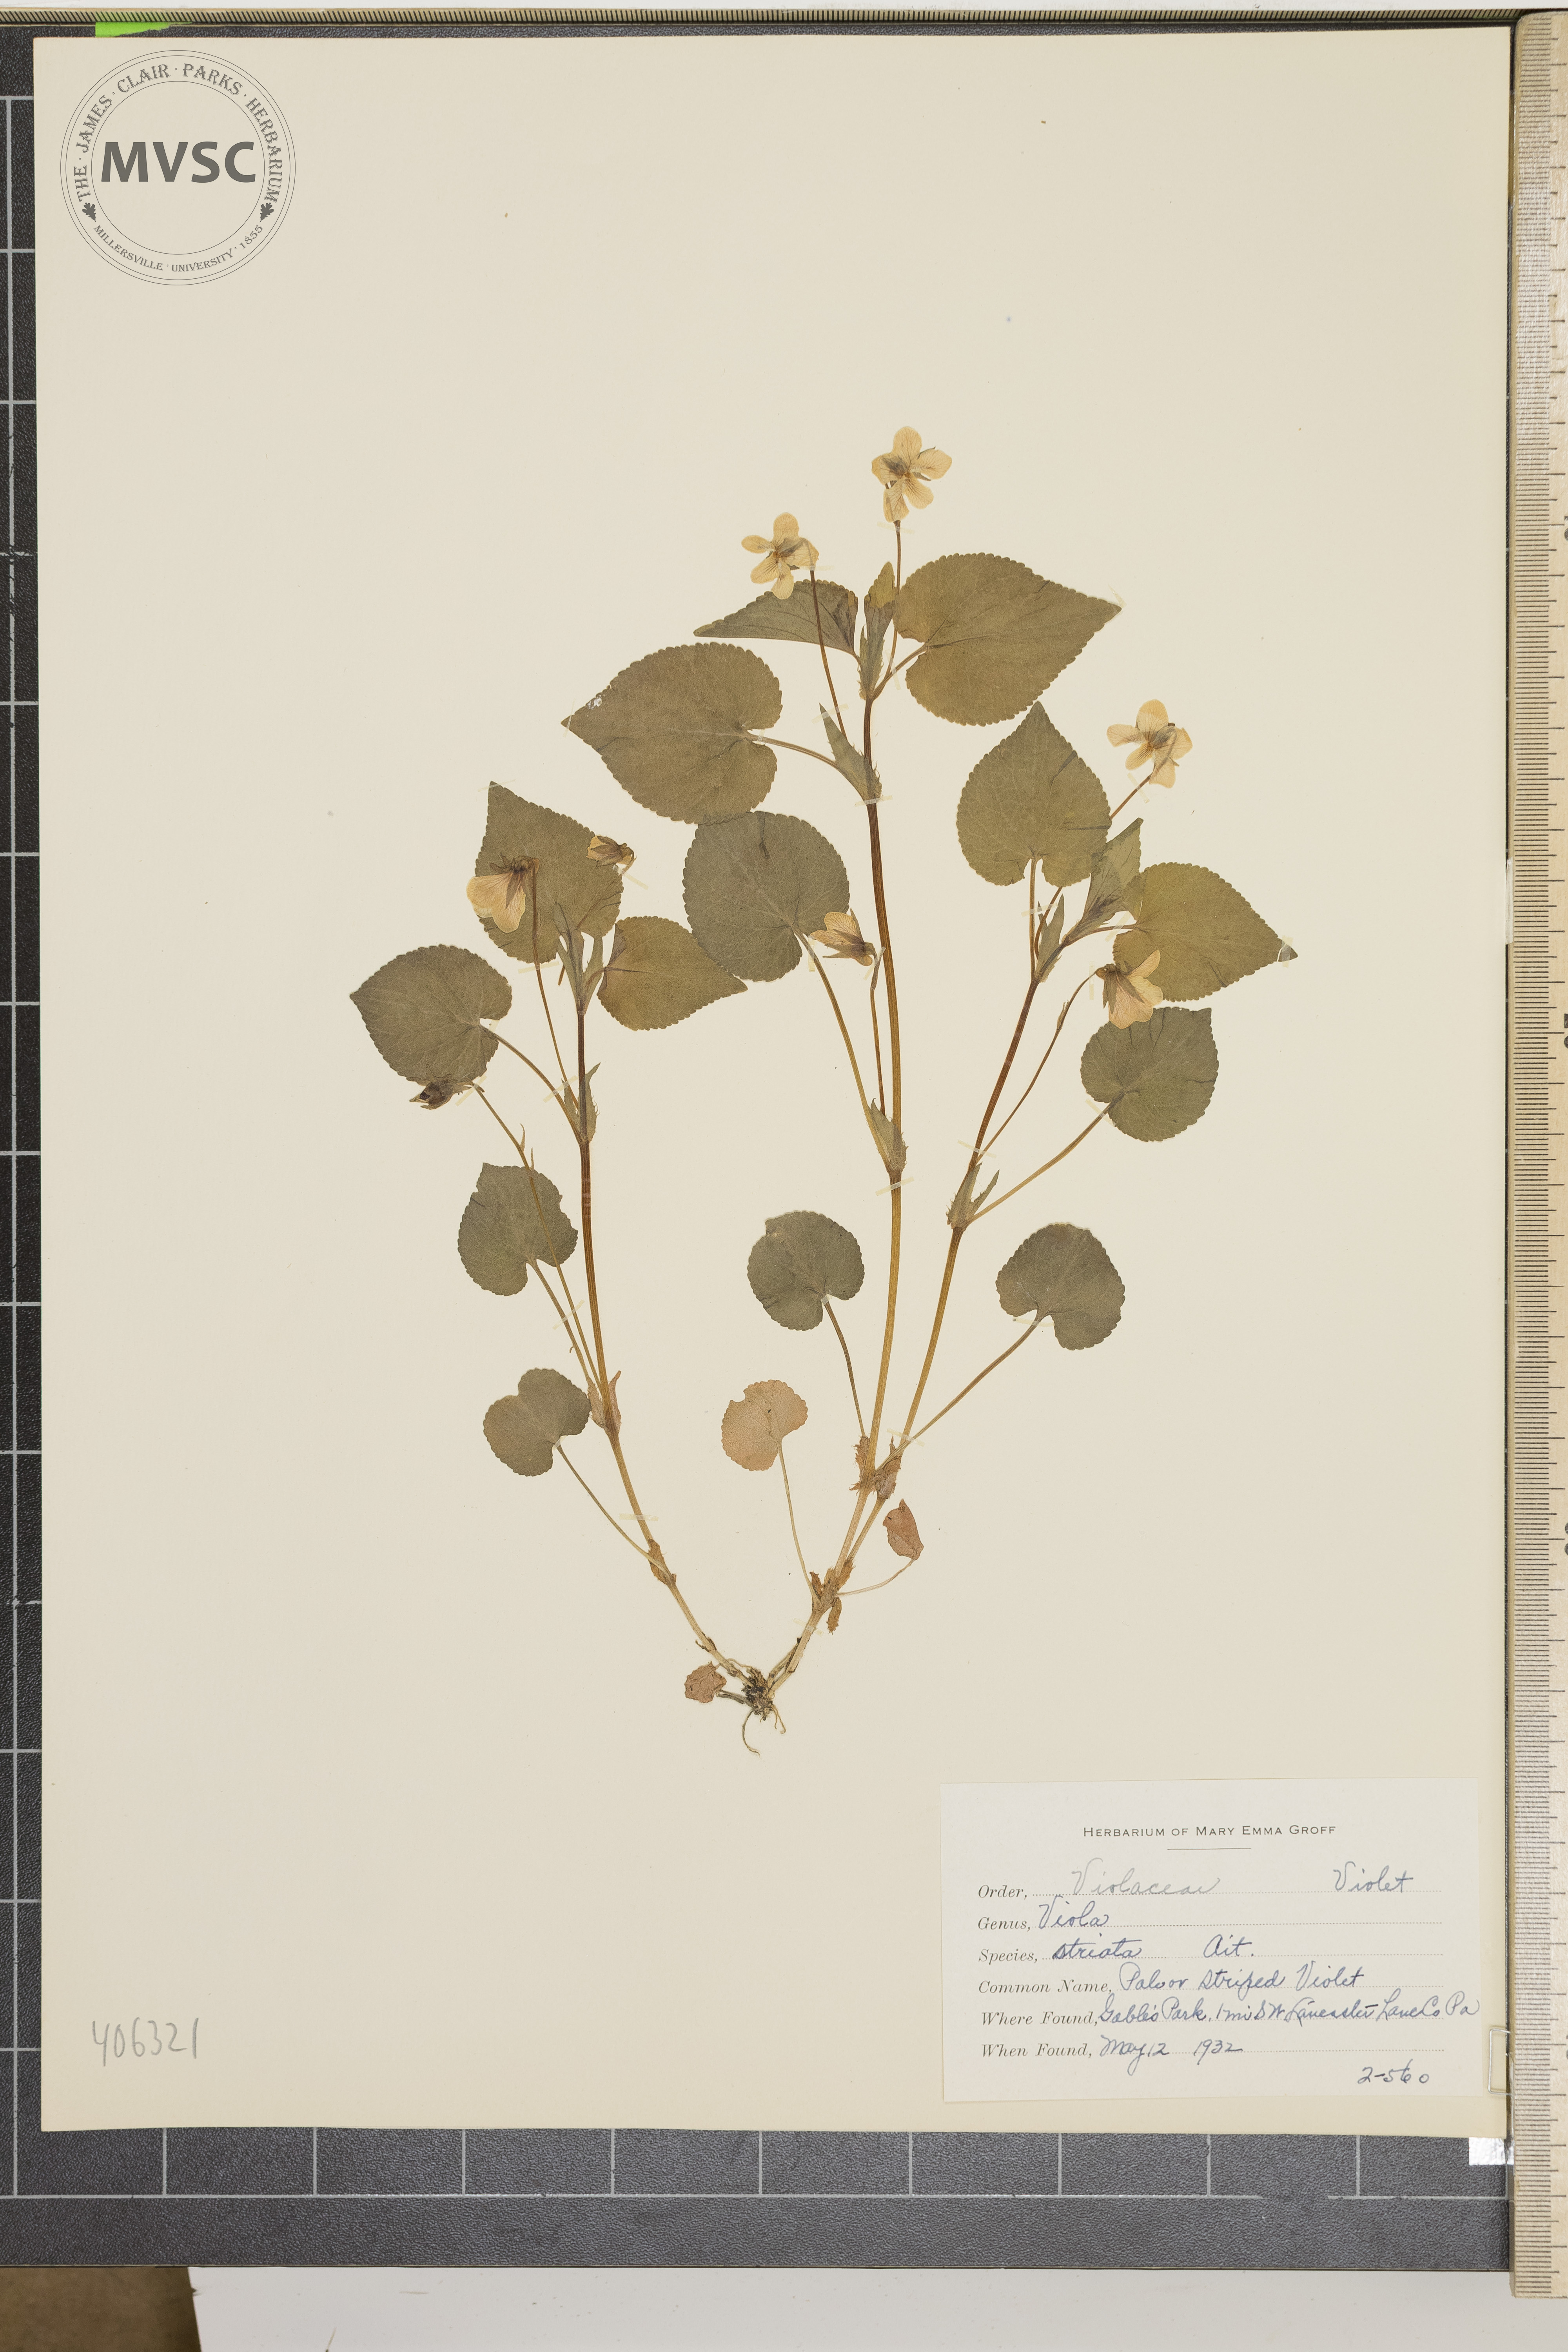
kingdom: Plantae
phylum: Tracheophyta
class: Magnoliopsida
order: Malpighiales
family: Violaceae
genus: Viola
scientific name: Viola striata
